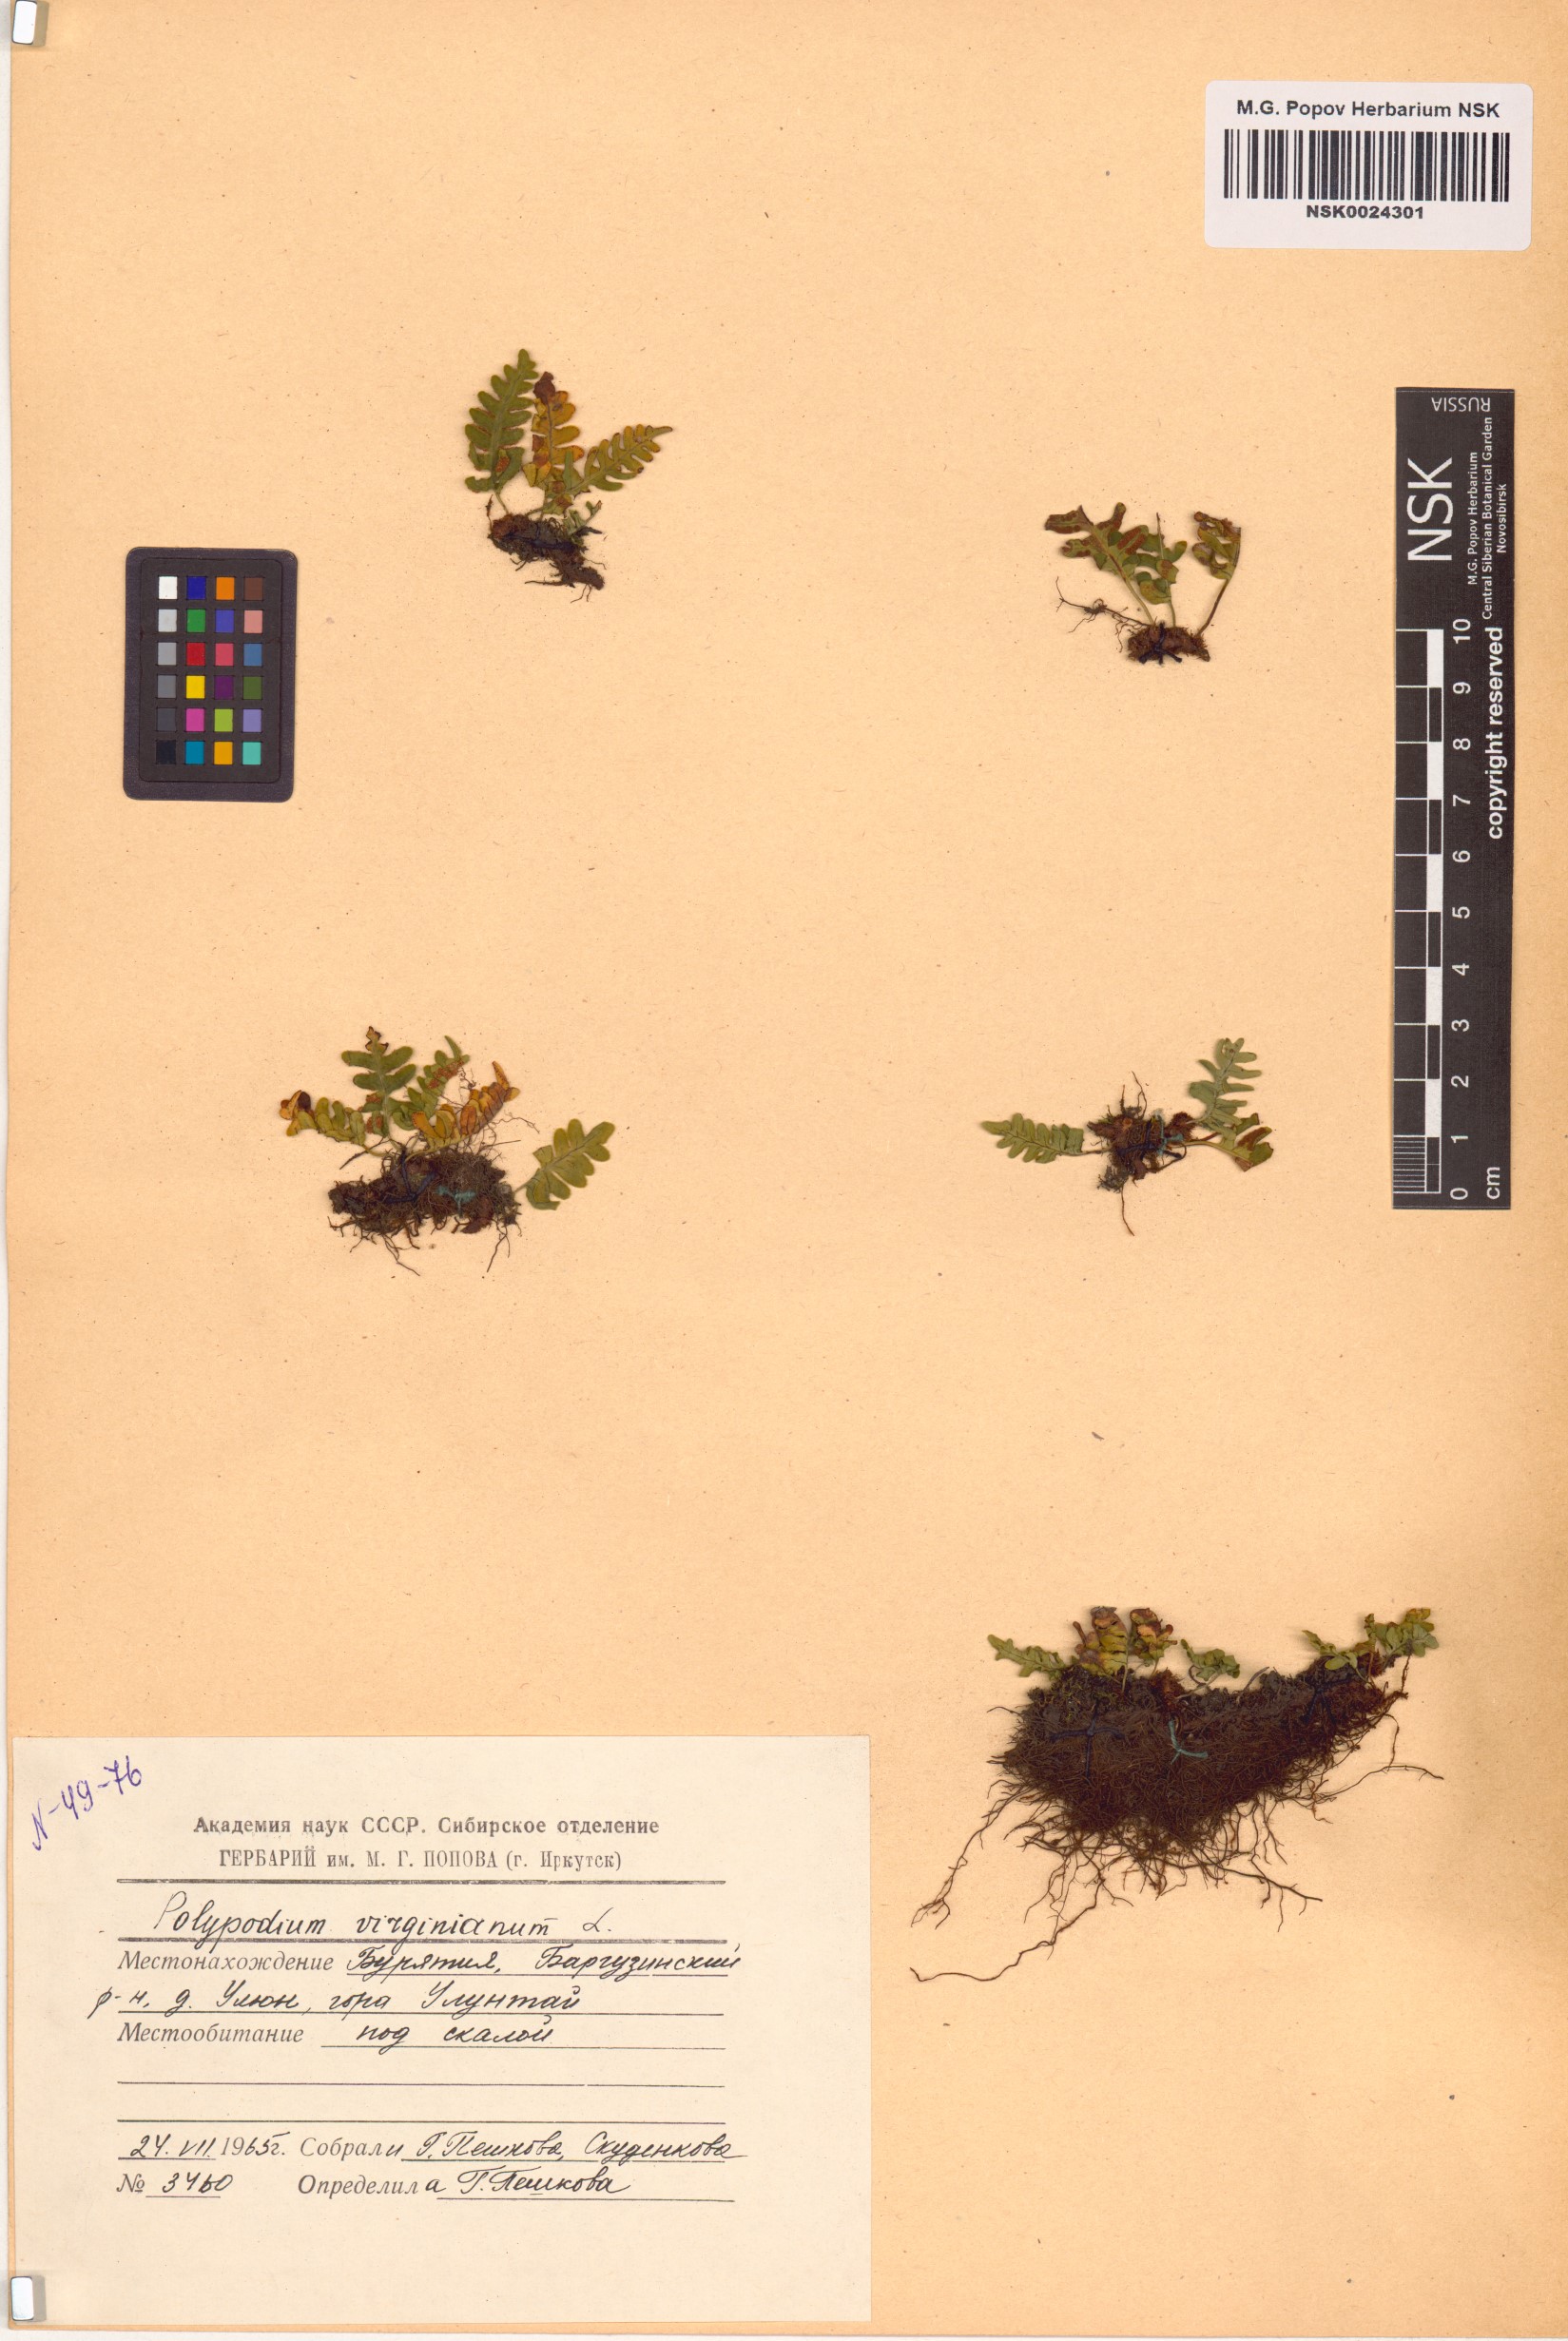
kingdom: Plantae
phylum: Tracheophyta
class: Polypodiopsida
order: Polypodiales
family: Polypodiaceae
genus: Polypodium
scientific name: Polypodium virginianum
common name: American wall fern
